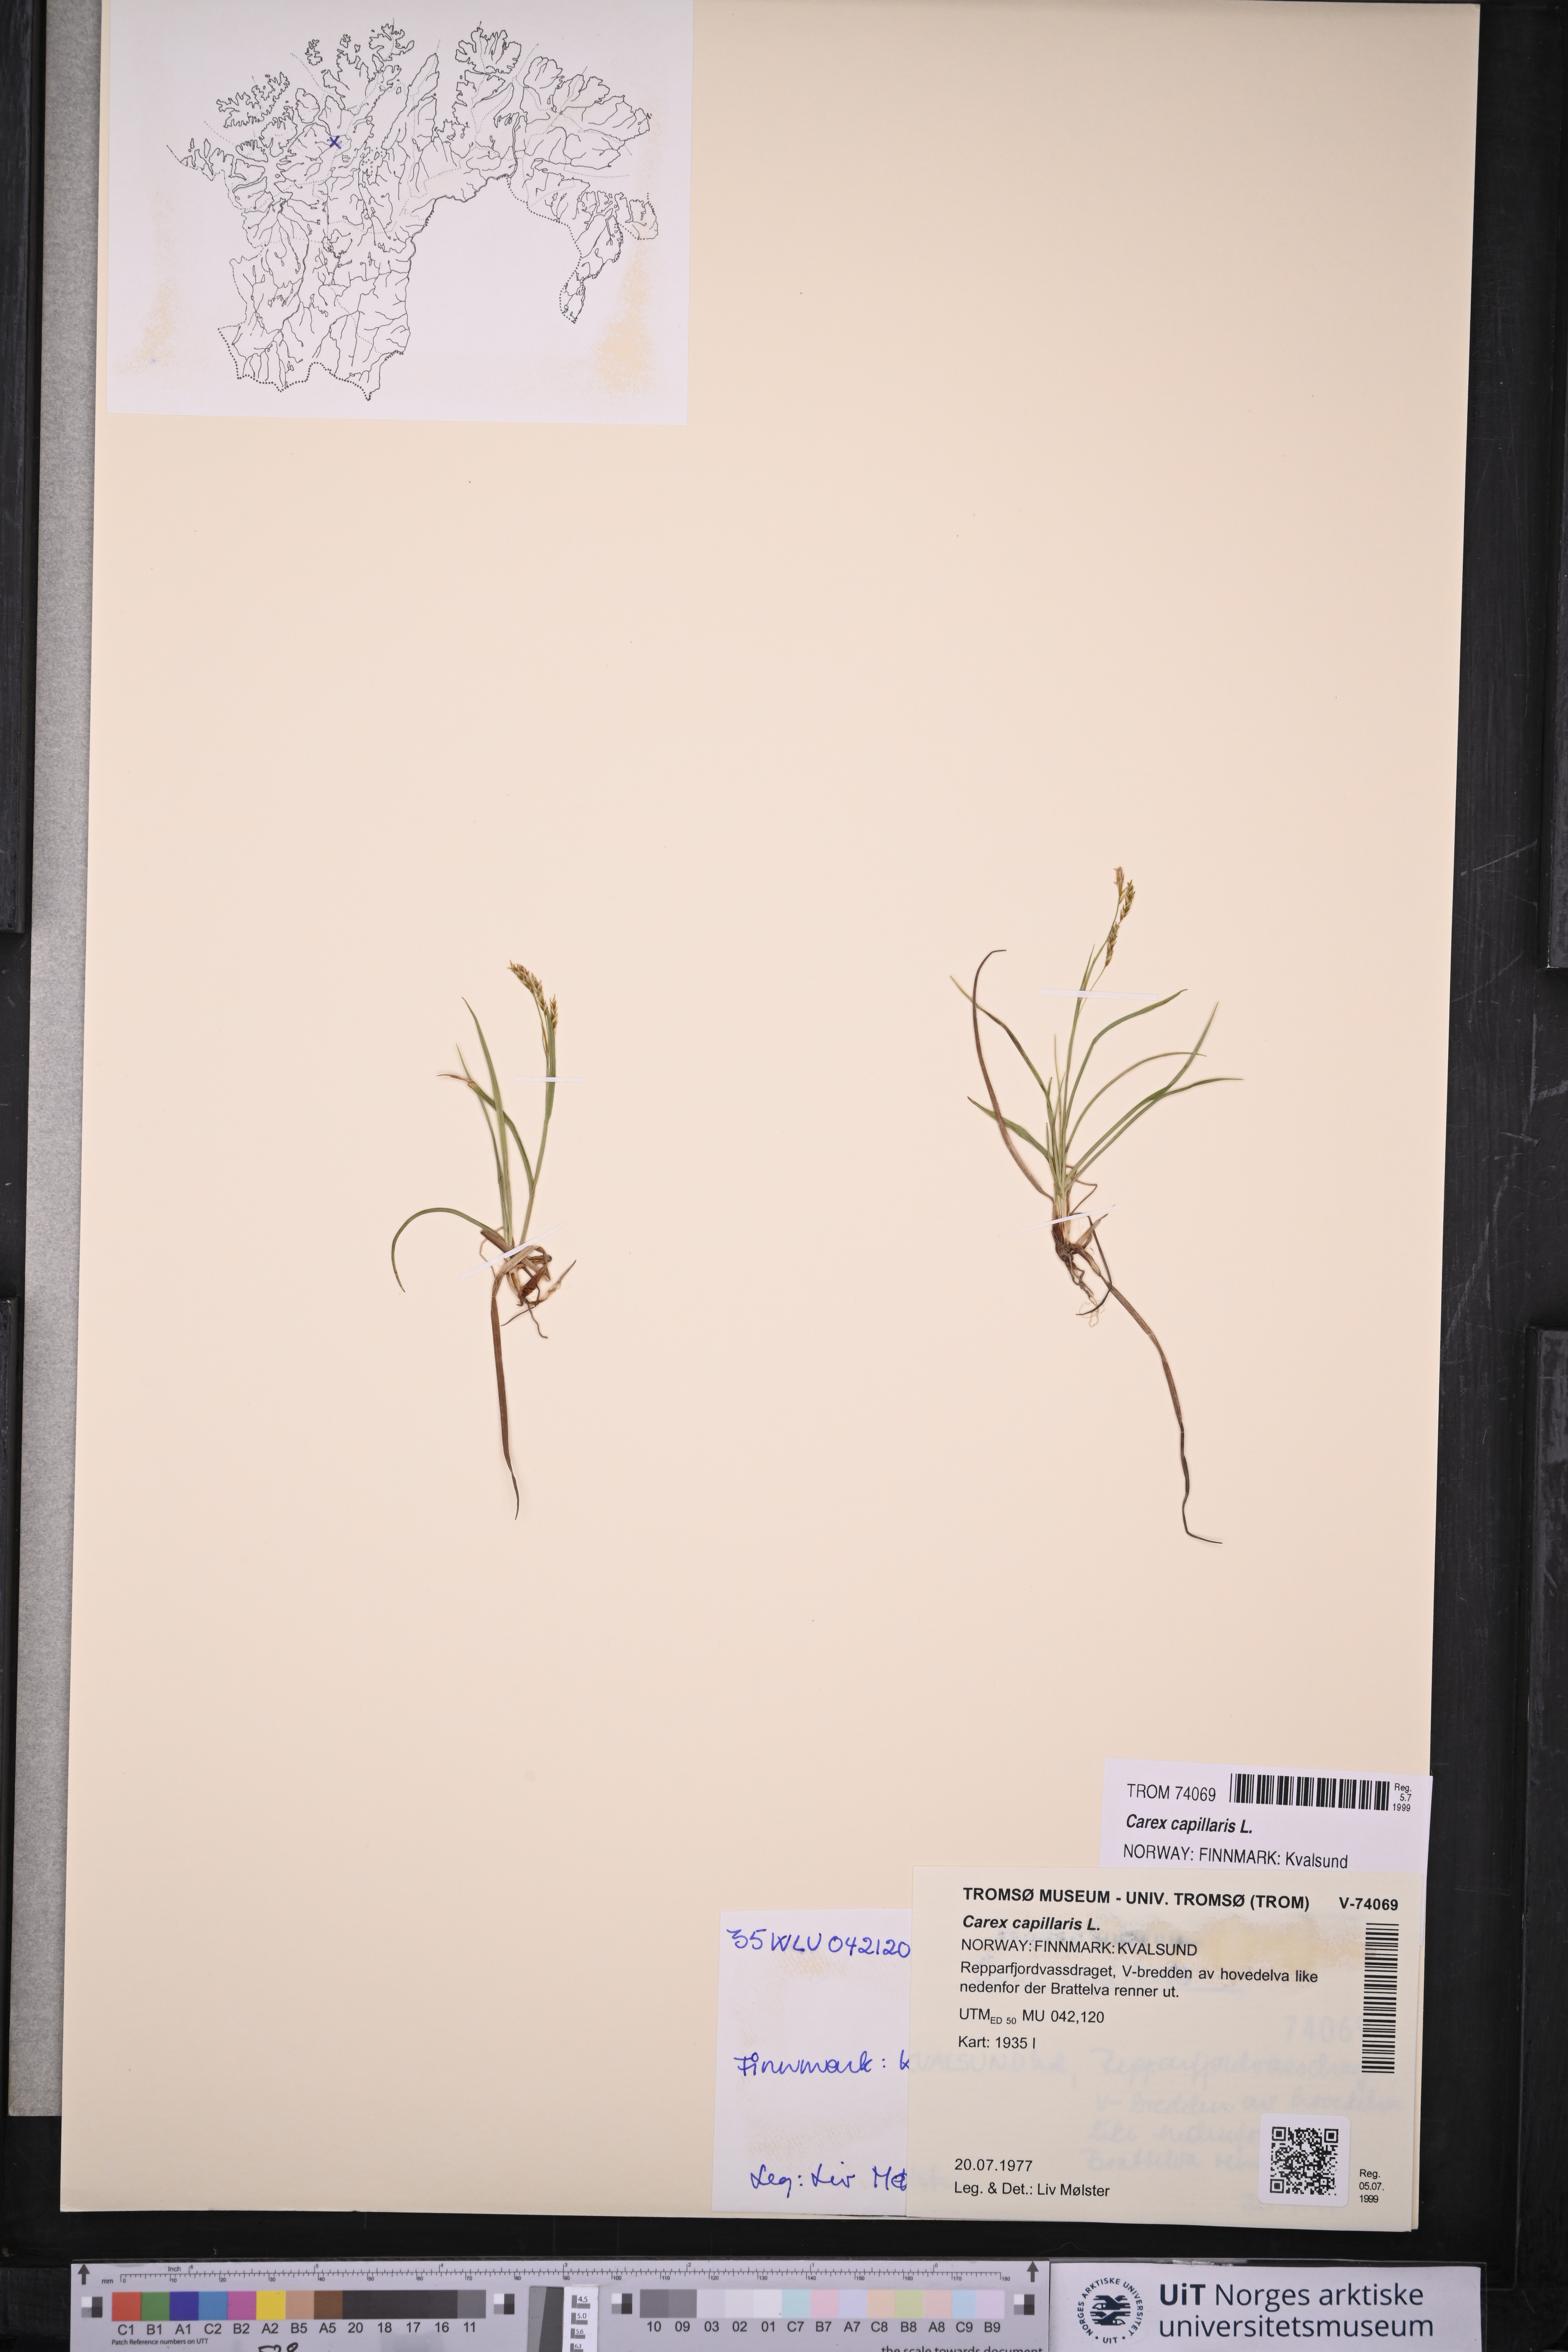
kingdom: Plantae
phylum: Tracheophyta
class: Liliopsida
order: Poales
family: Cyperaceae
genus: Carex
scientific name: Carex capillaris
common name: Hair sedge
